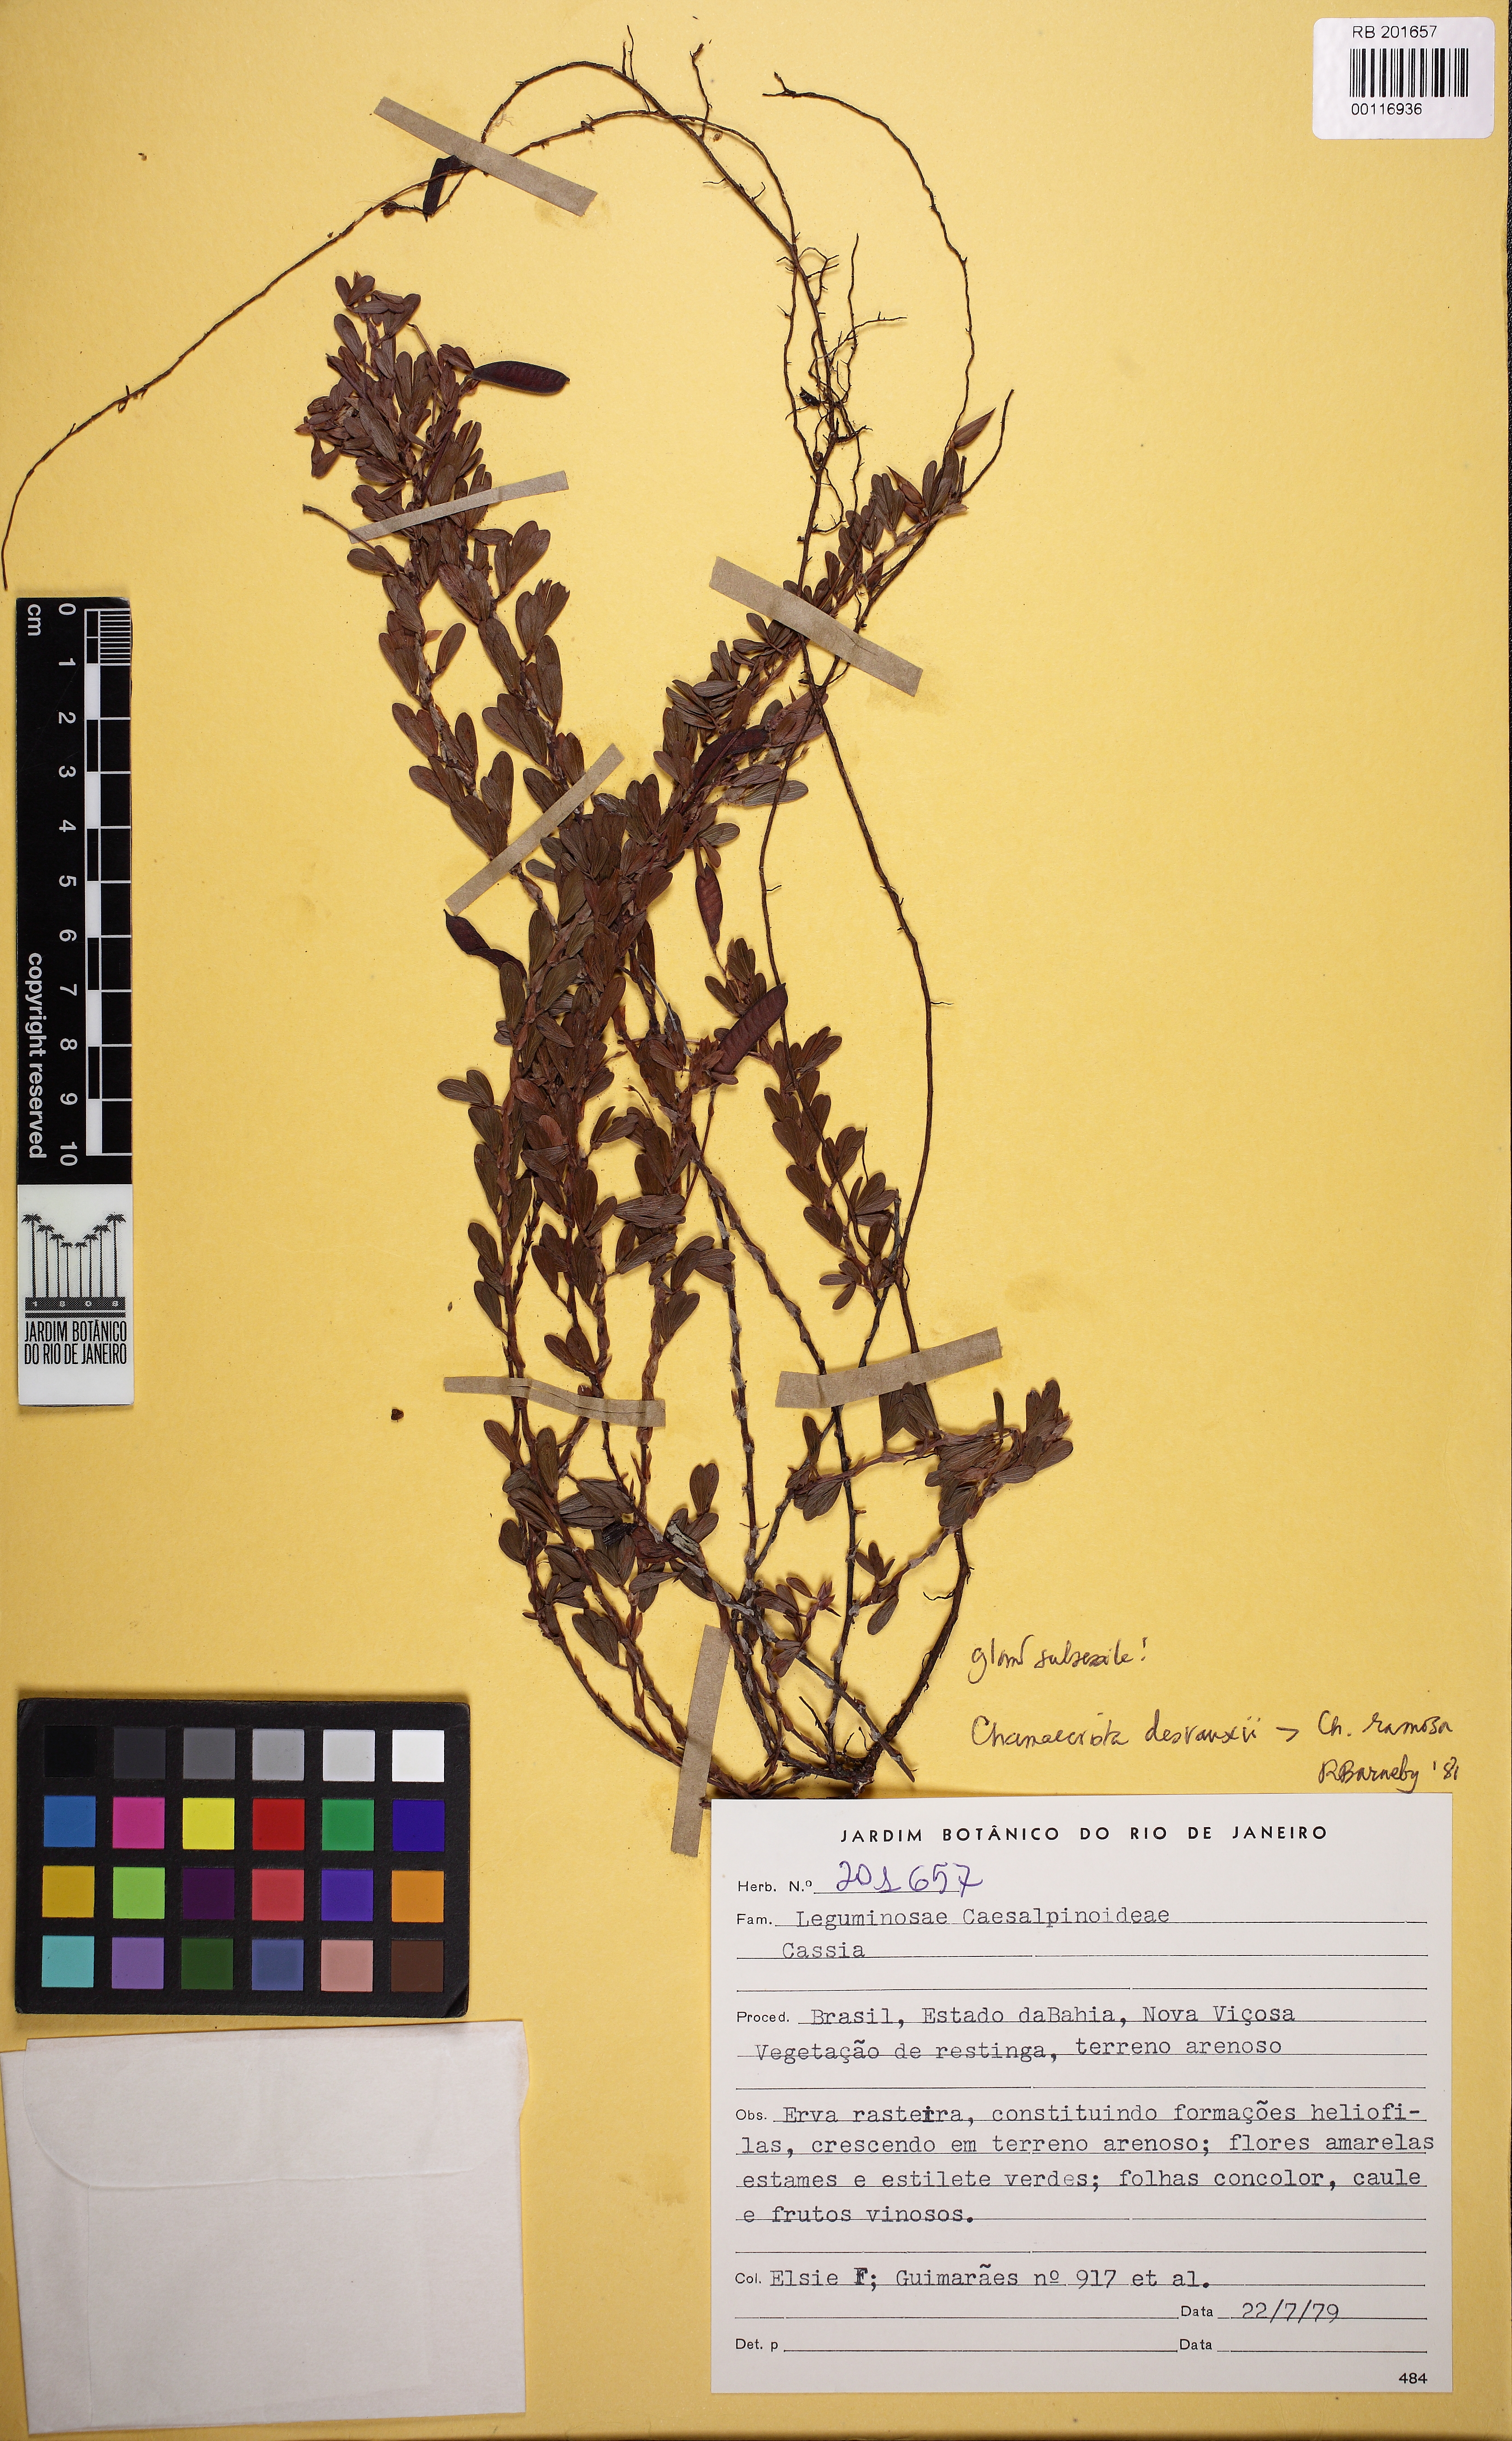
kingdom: Plantae
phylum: Tracheophyta
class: Magnoliopsida
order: Fabales
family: Fabaceae
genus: Chamaecrista
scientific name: Chamaecrista desvauxii
